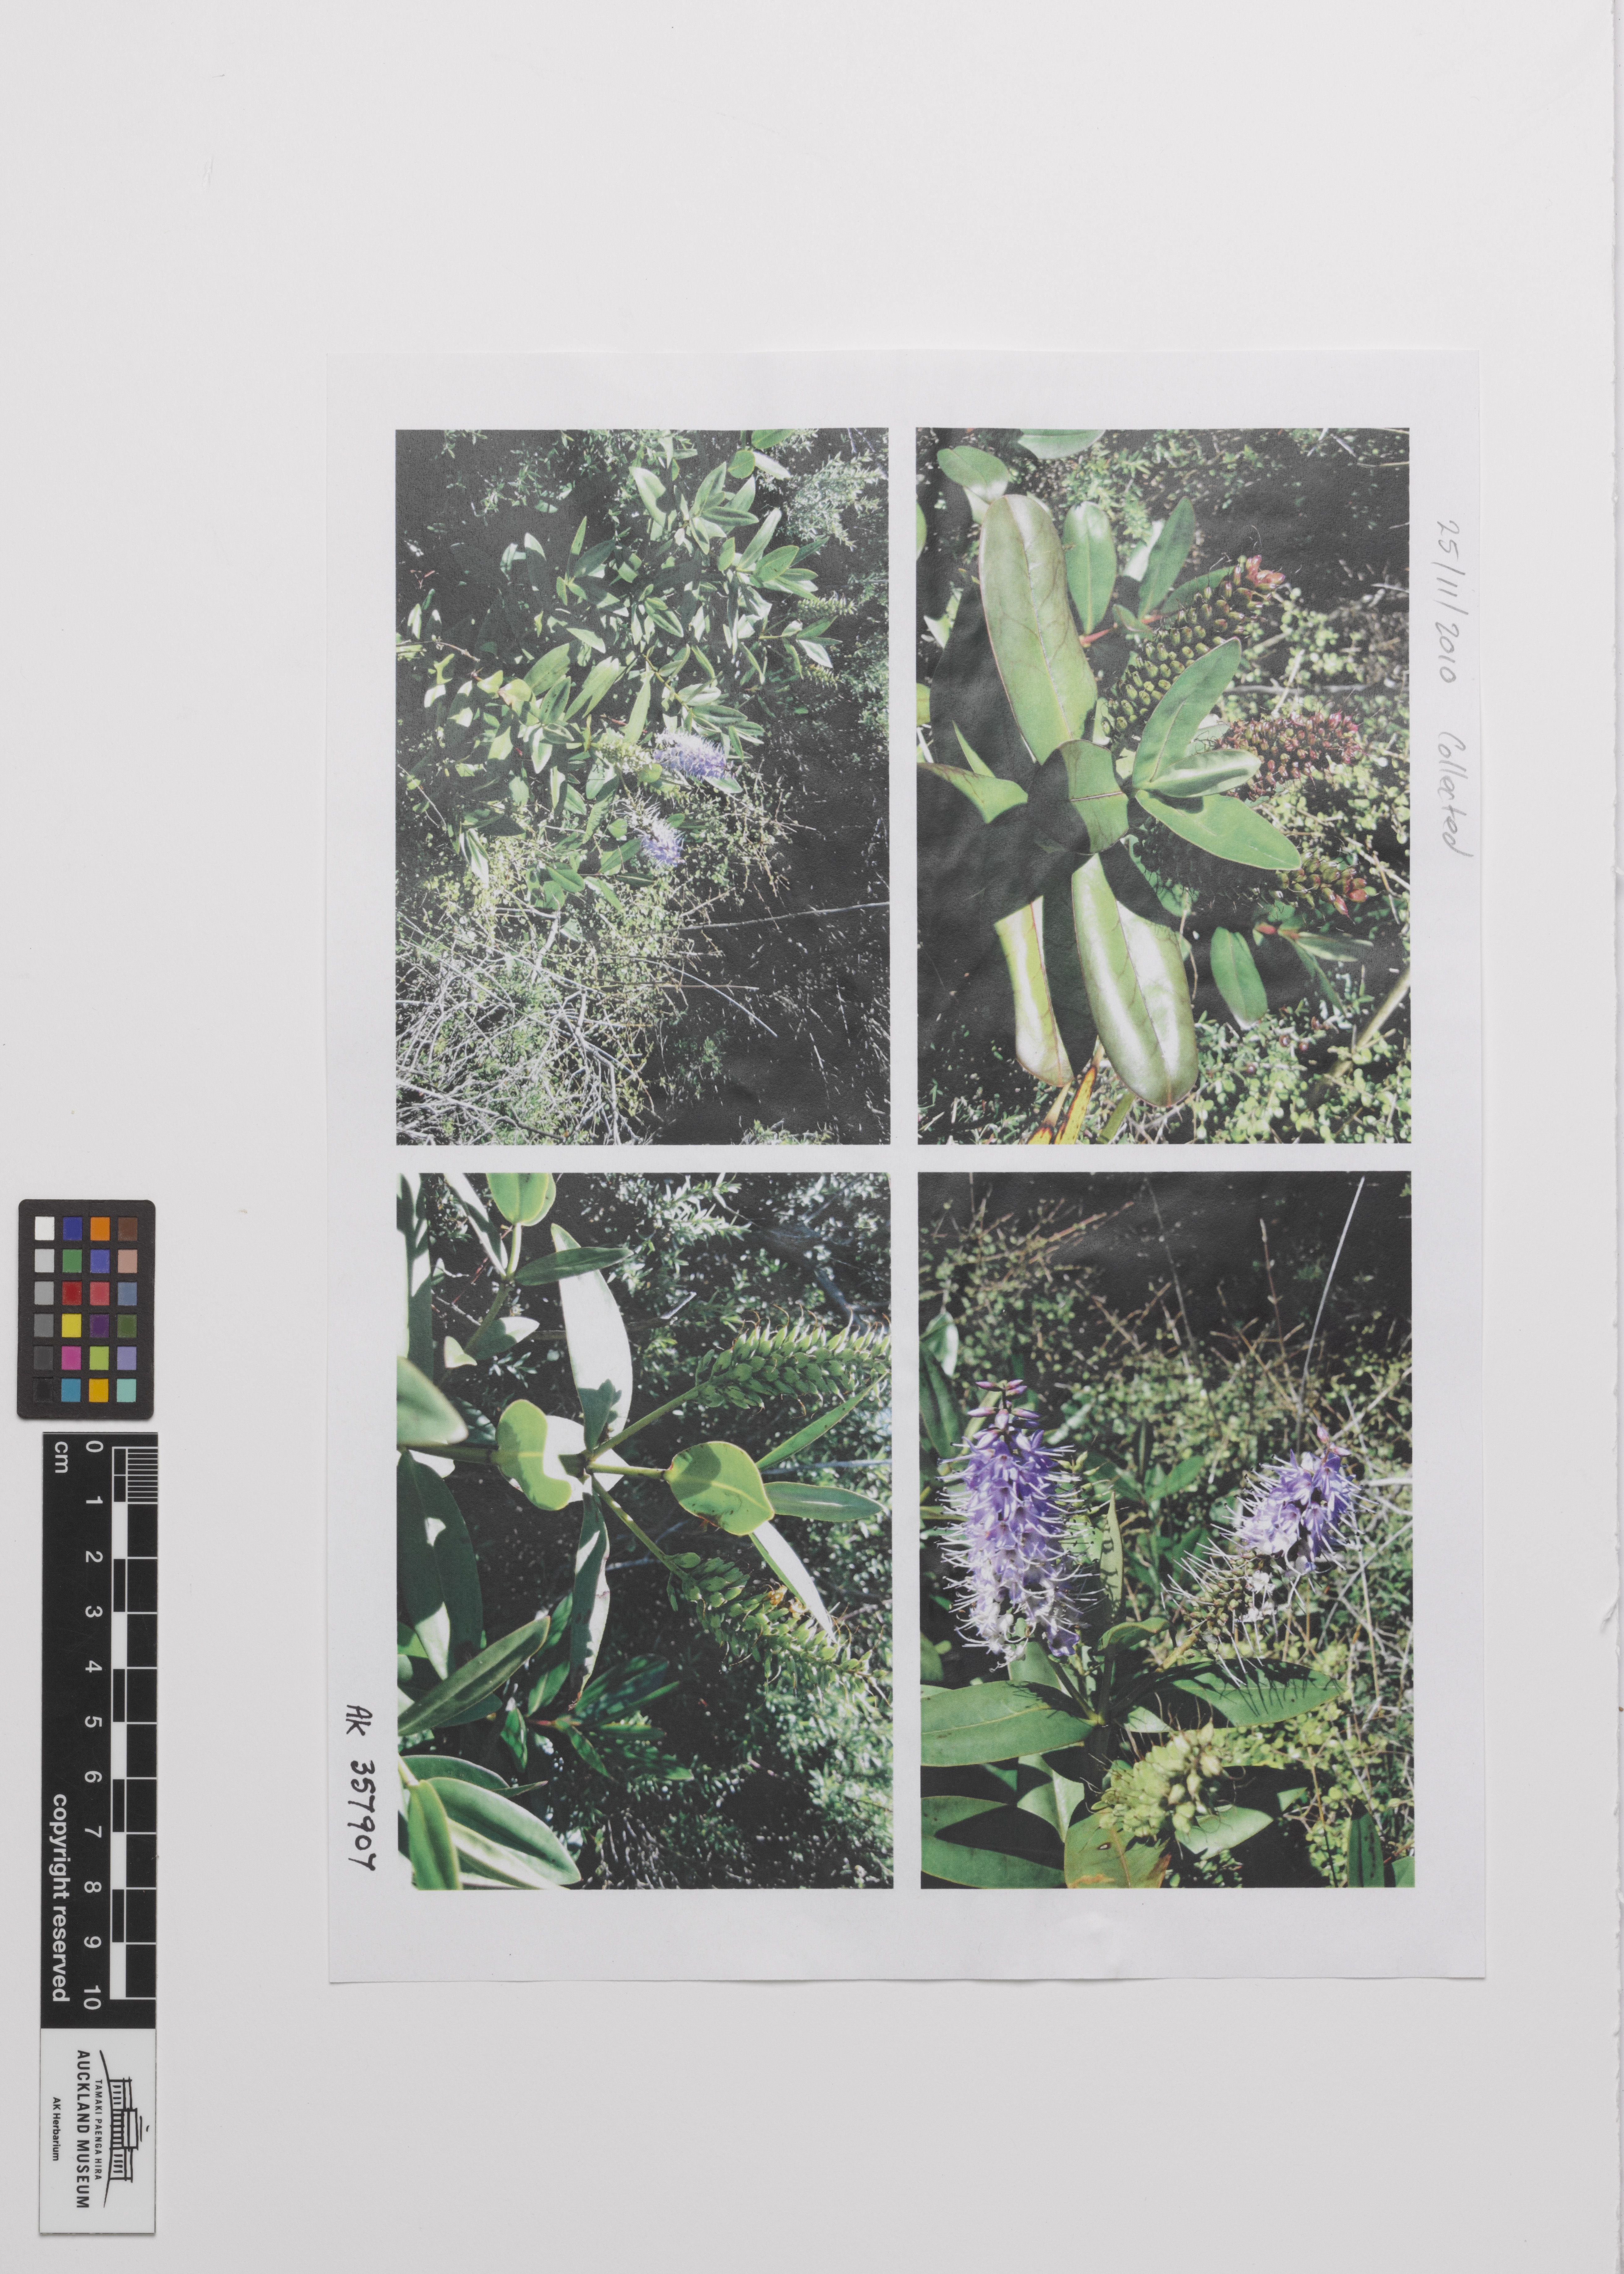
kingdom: Plantae
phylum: Marchantiophyta
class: Jungermanniopsida
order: Porellales
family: Lejeuneaceae
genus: Lejeunea
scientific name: Lejeunea flava
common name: Yellow pouncewort
